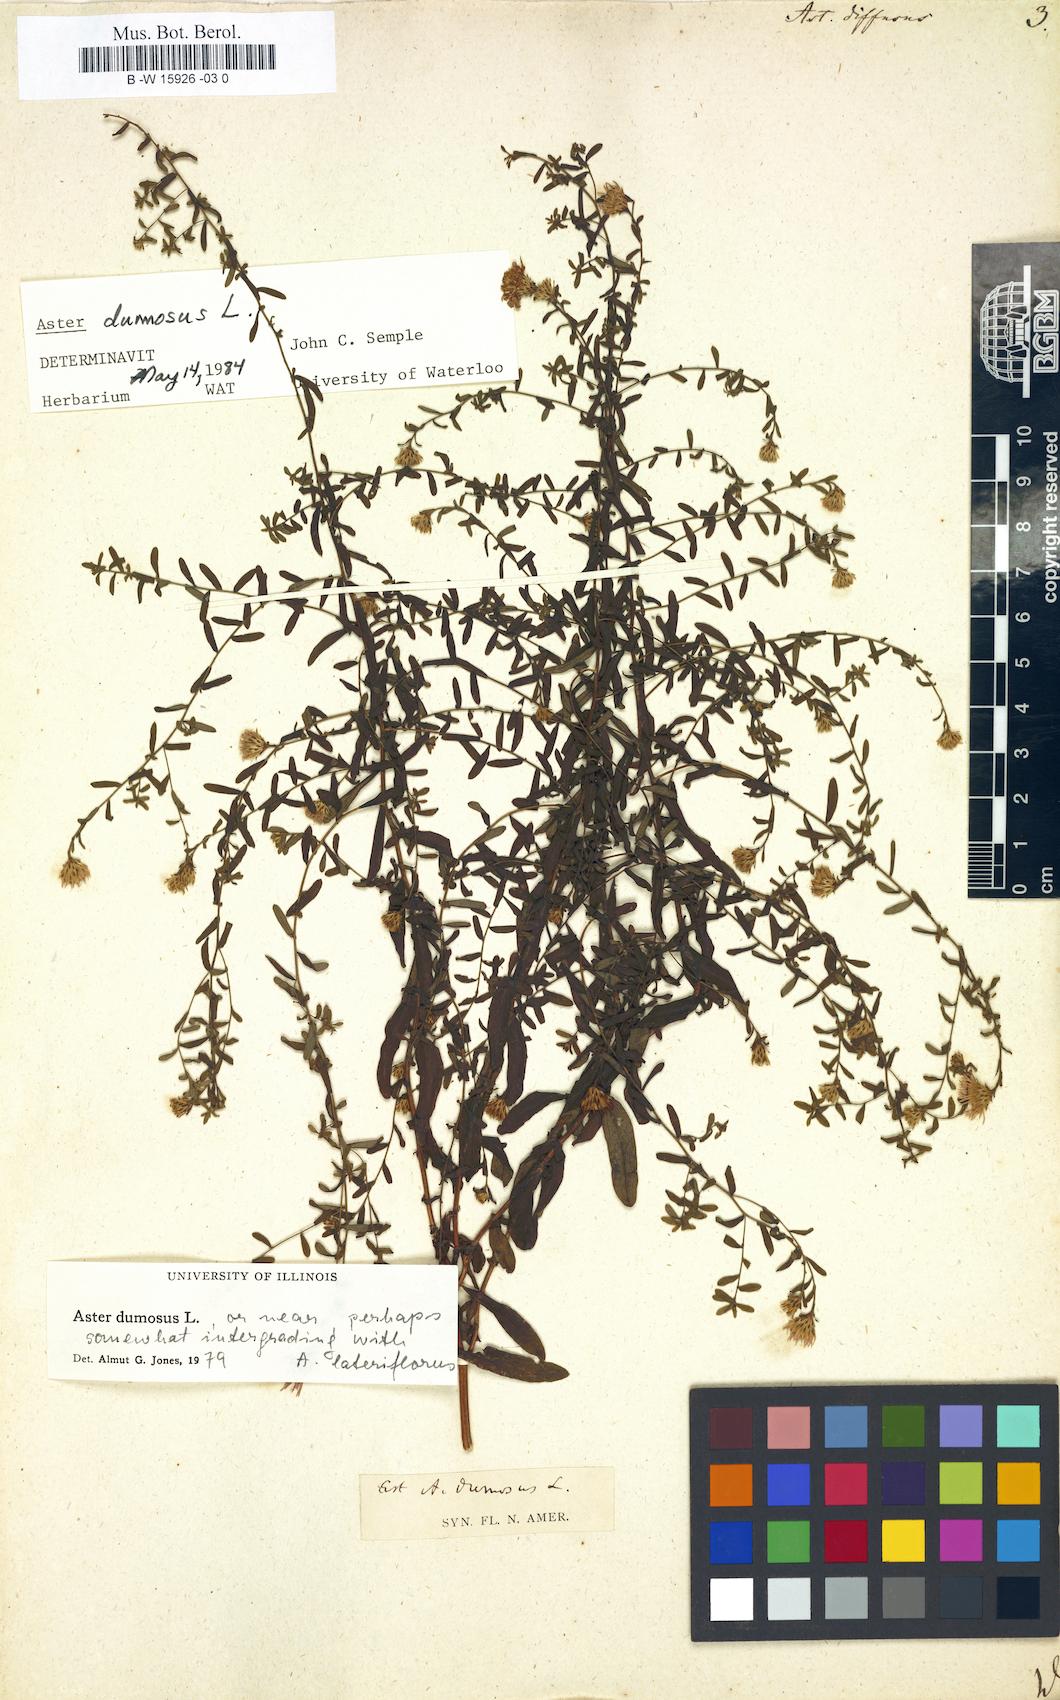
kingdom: Plantae
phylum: Tracheophyta
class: Magnoliopsida
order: Asterales
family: Asteraceae
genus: Aster
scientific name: Aster diffusus
